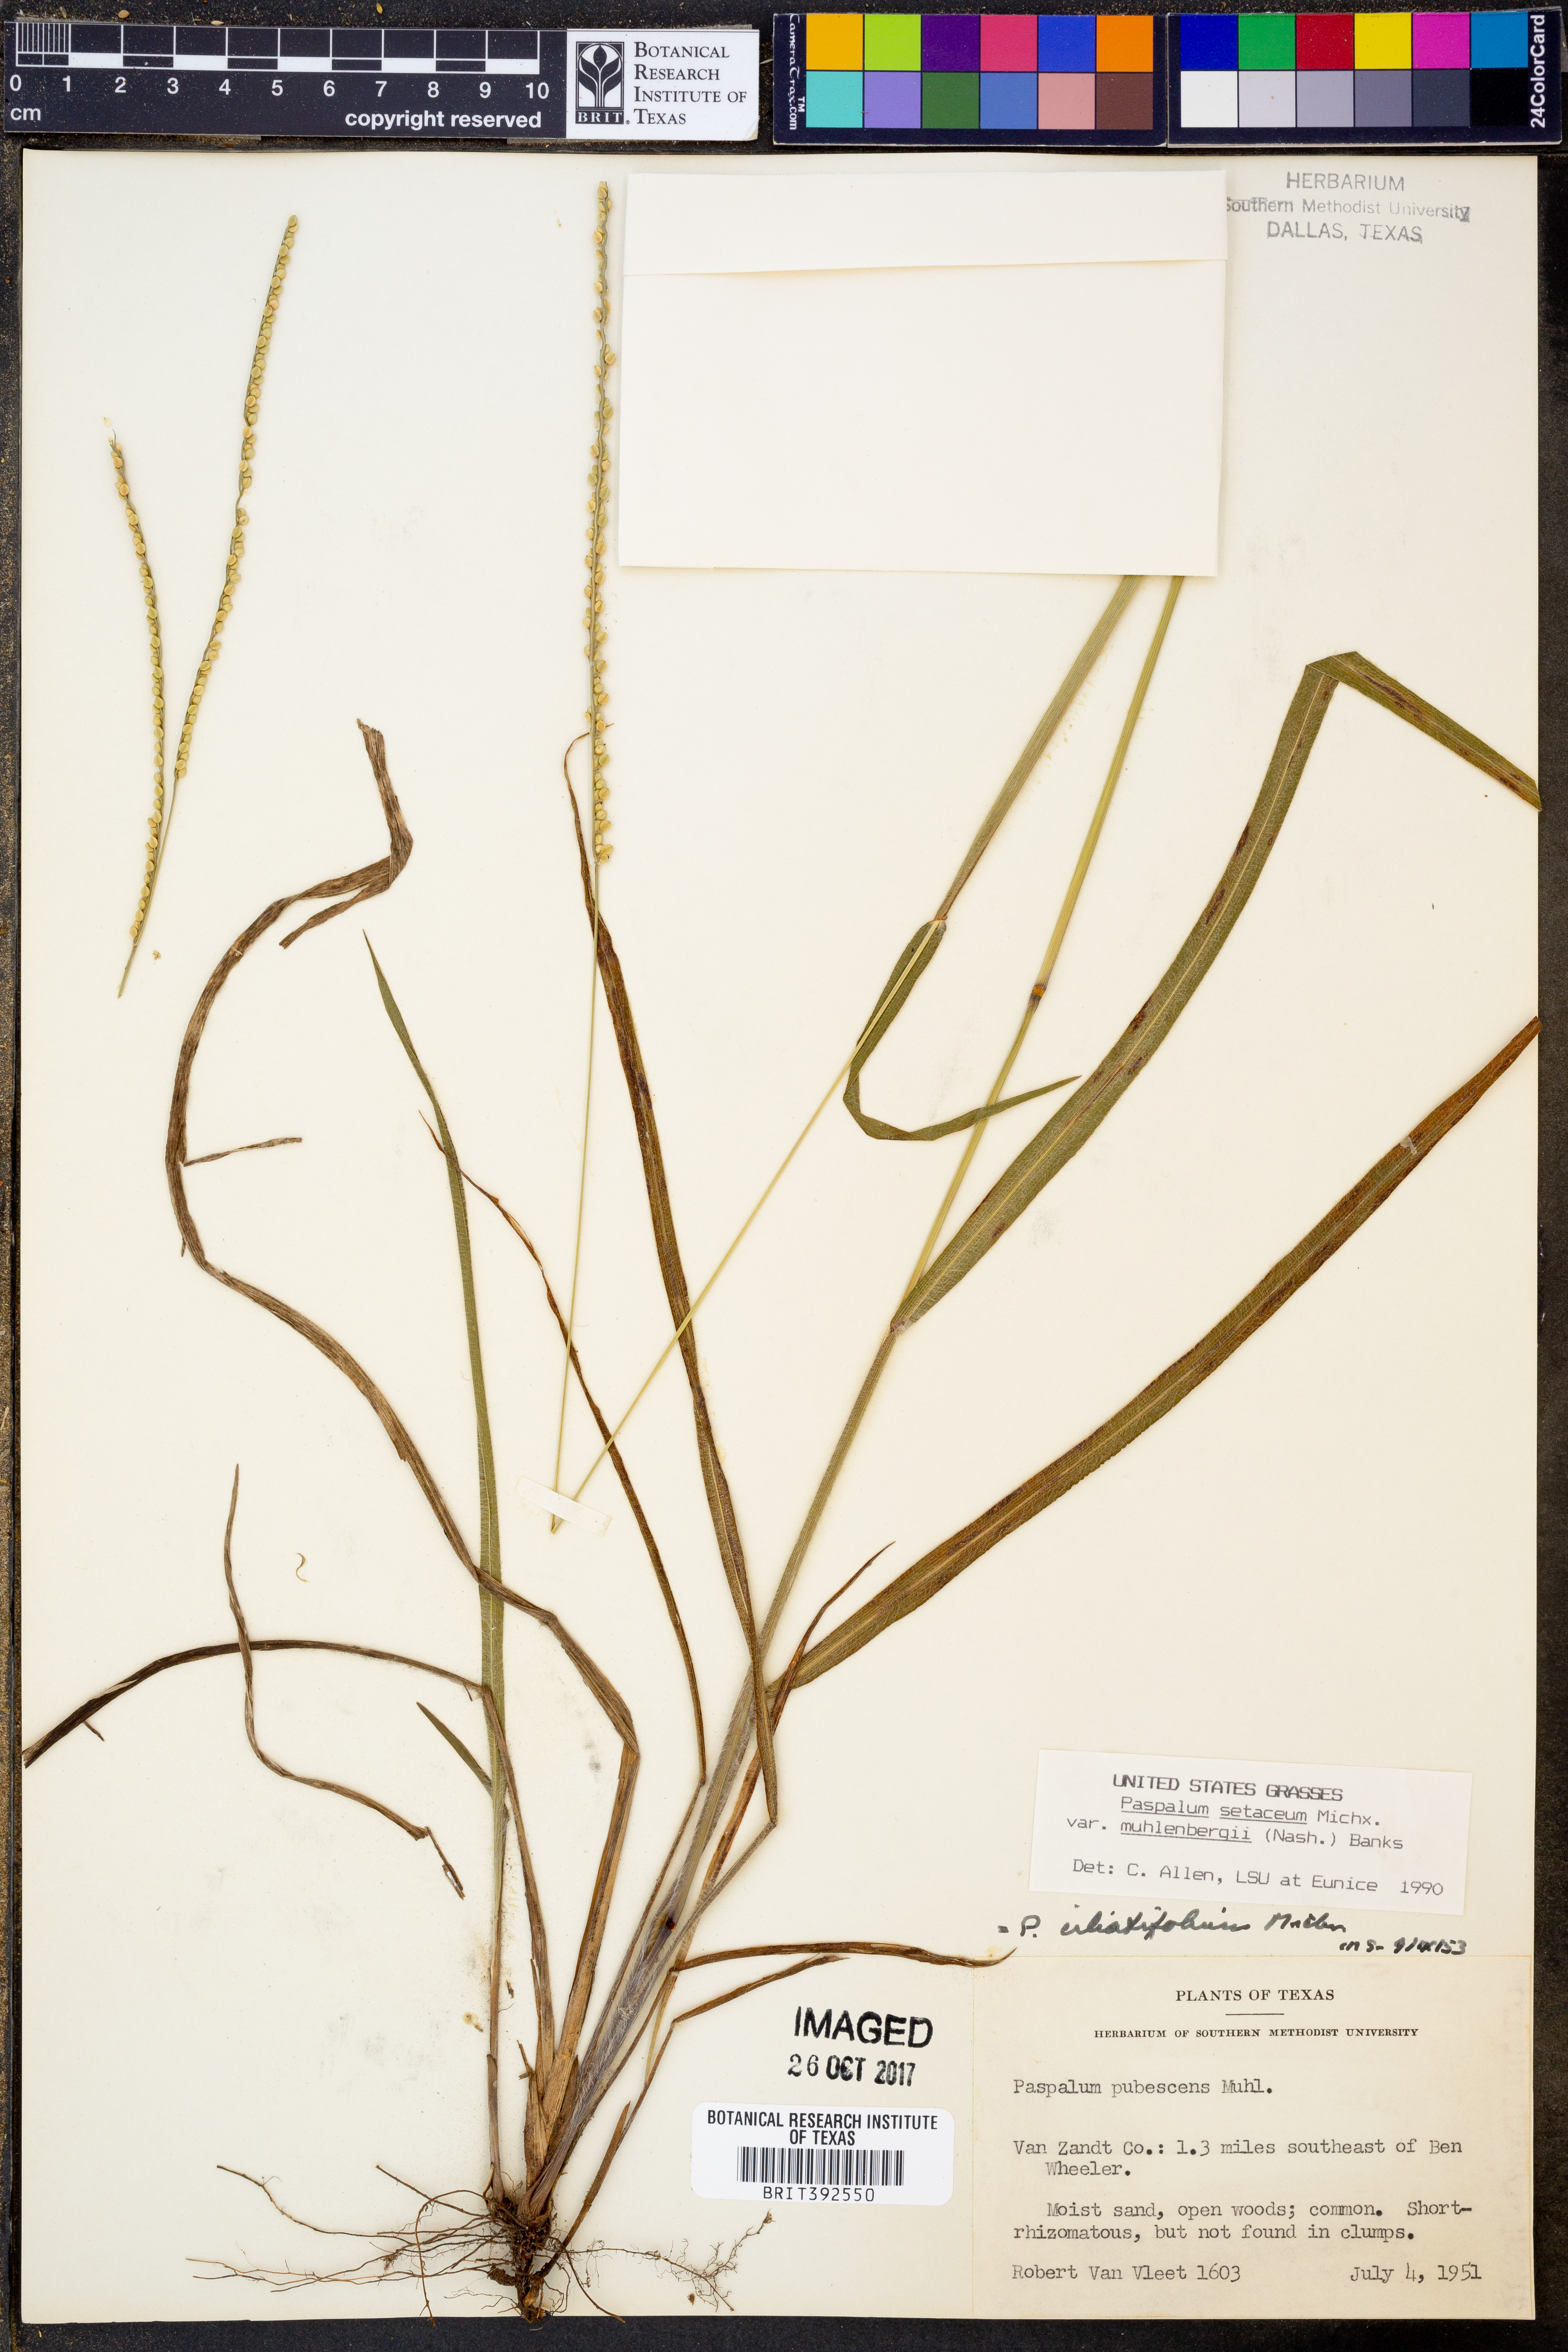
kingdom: Plantae
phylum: Tracheophyta
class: Liliopsida
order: Poales
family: Poaceae
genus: Paspalum
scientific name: Paspalum setaceum
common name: Slender paspalum
